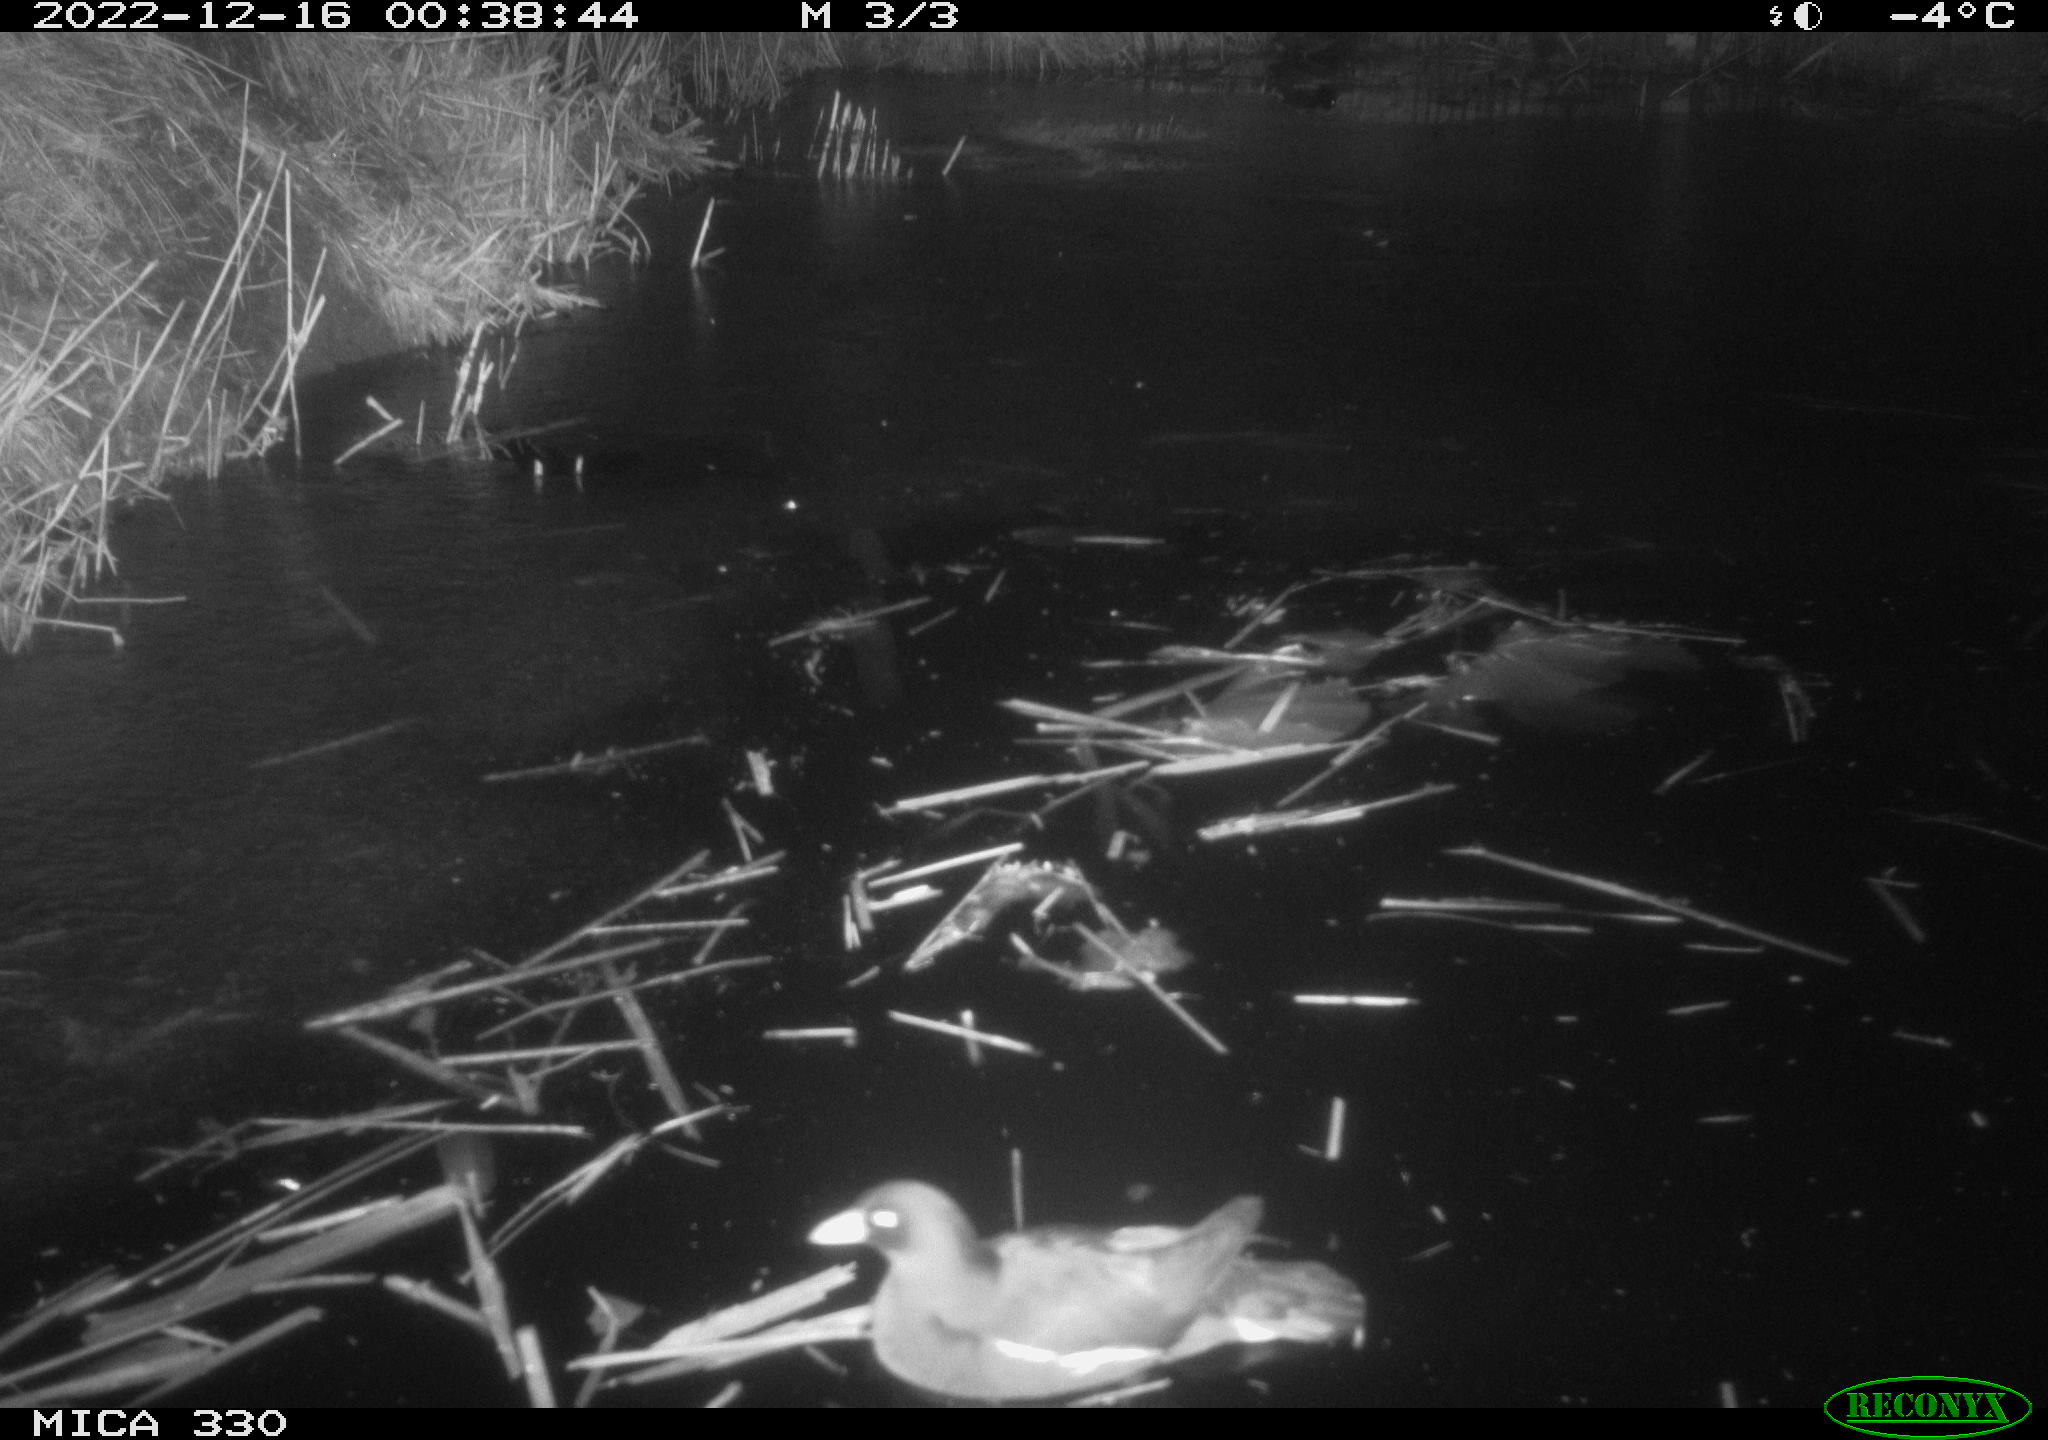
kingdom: Animalia
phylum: Chordata
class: Aves
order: Gruiformes
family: Rallidae
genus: Gallinula
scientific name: Gallinula chloropus
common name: Common moorhen
